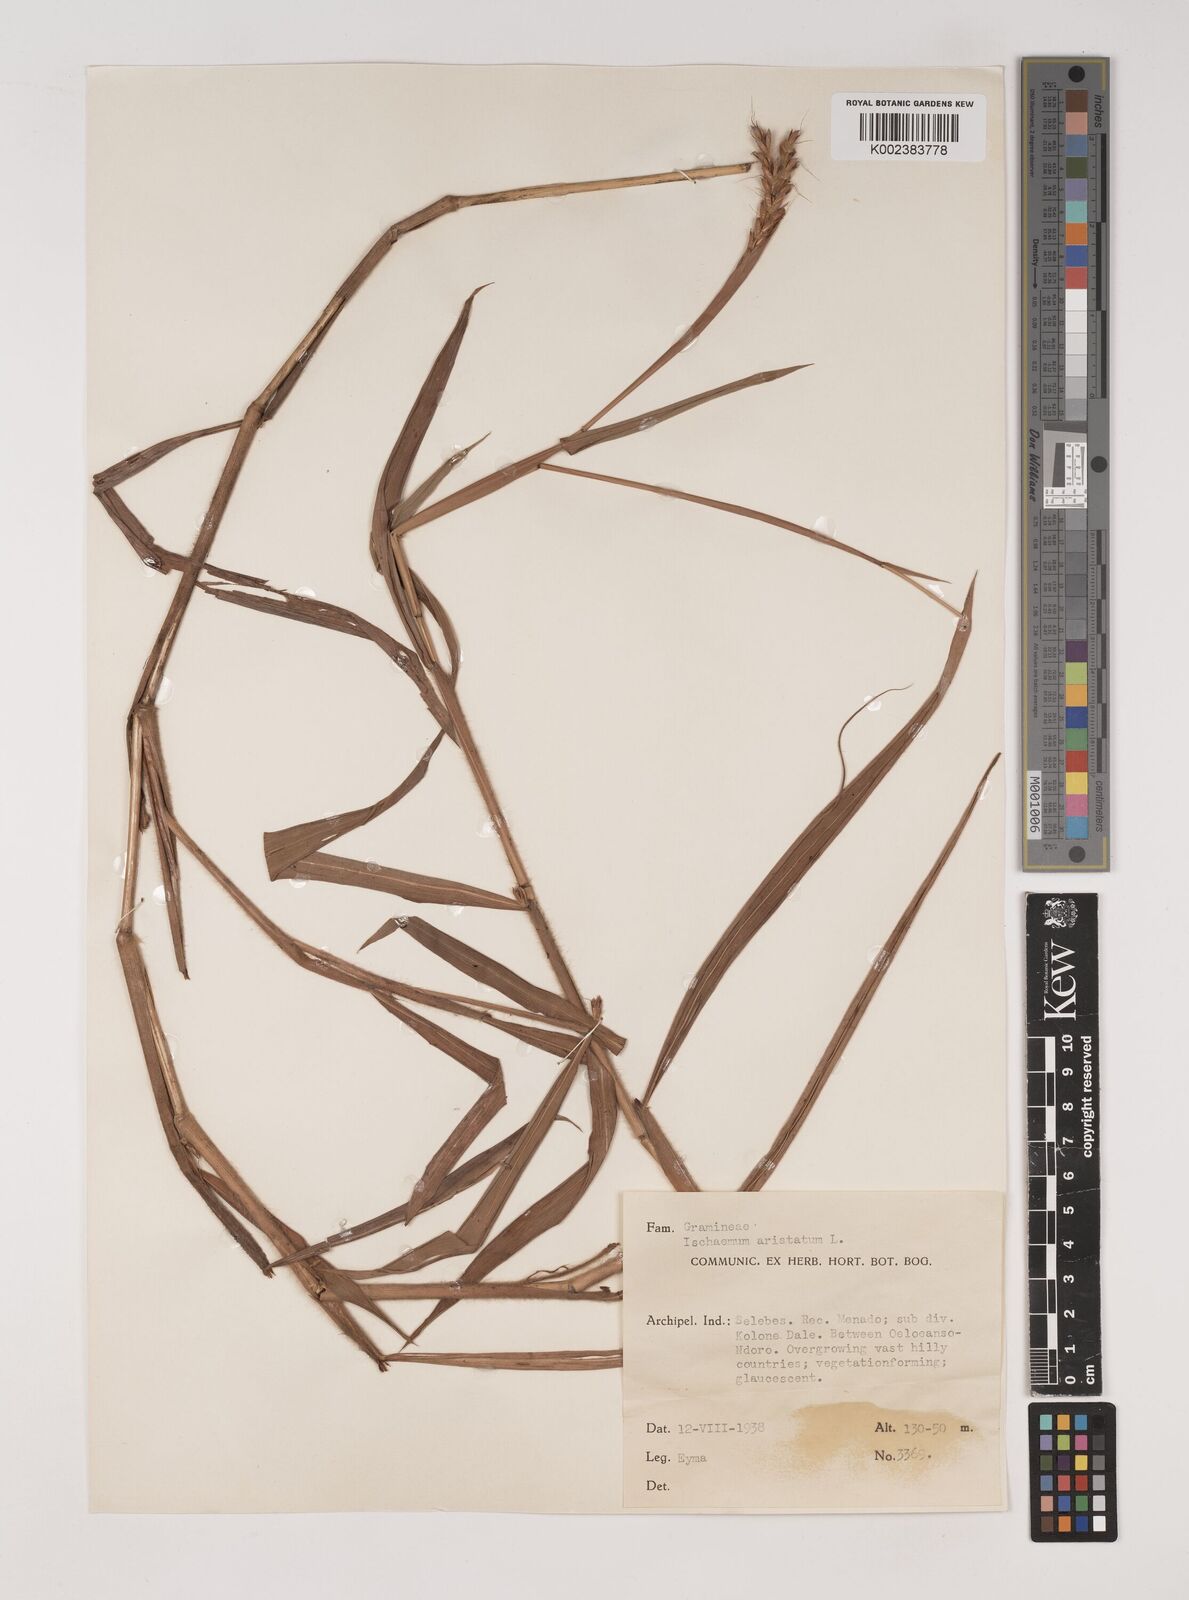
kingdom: Plantae
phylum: Tracheophyta
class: Liliopsida
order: Poales
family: Poaceae
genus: Polytrias
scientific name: Polytrias indica
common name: Indian murainagrass
